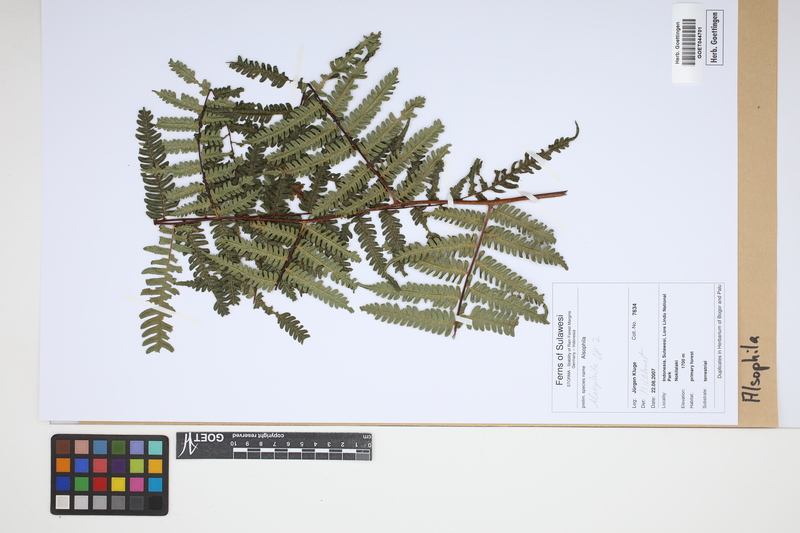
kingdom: Plantae
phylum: Tracheophyta
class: Polypodiopsida
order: Cyatheales
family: Cyatheaceae
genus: Alsophila
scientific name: Alsophila
